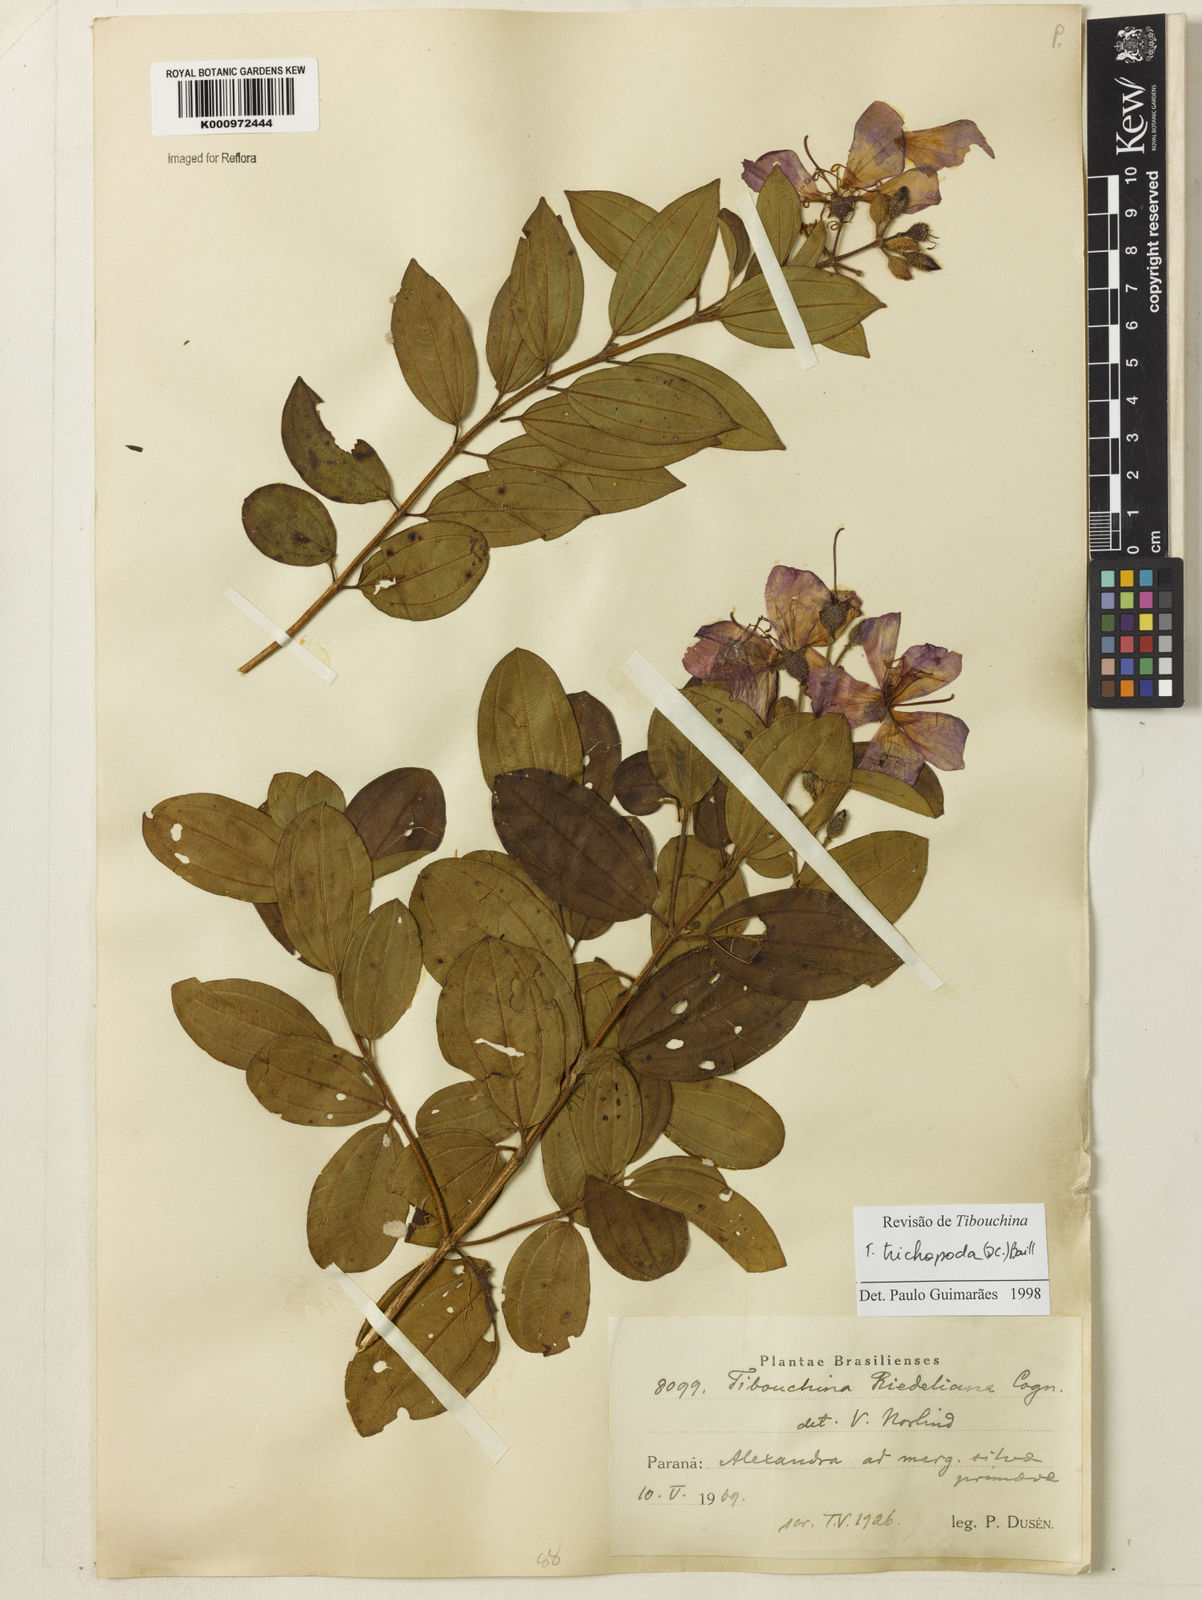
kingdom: Plantae
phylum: Tracheophyta
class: Magnoliopsida
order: Myrtales
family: Melastomataceae
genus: Pleroma
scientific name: Pleroma trichopodum
